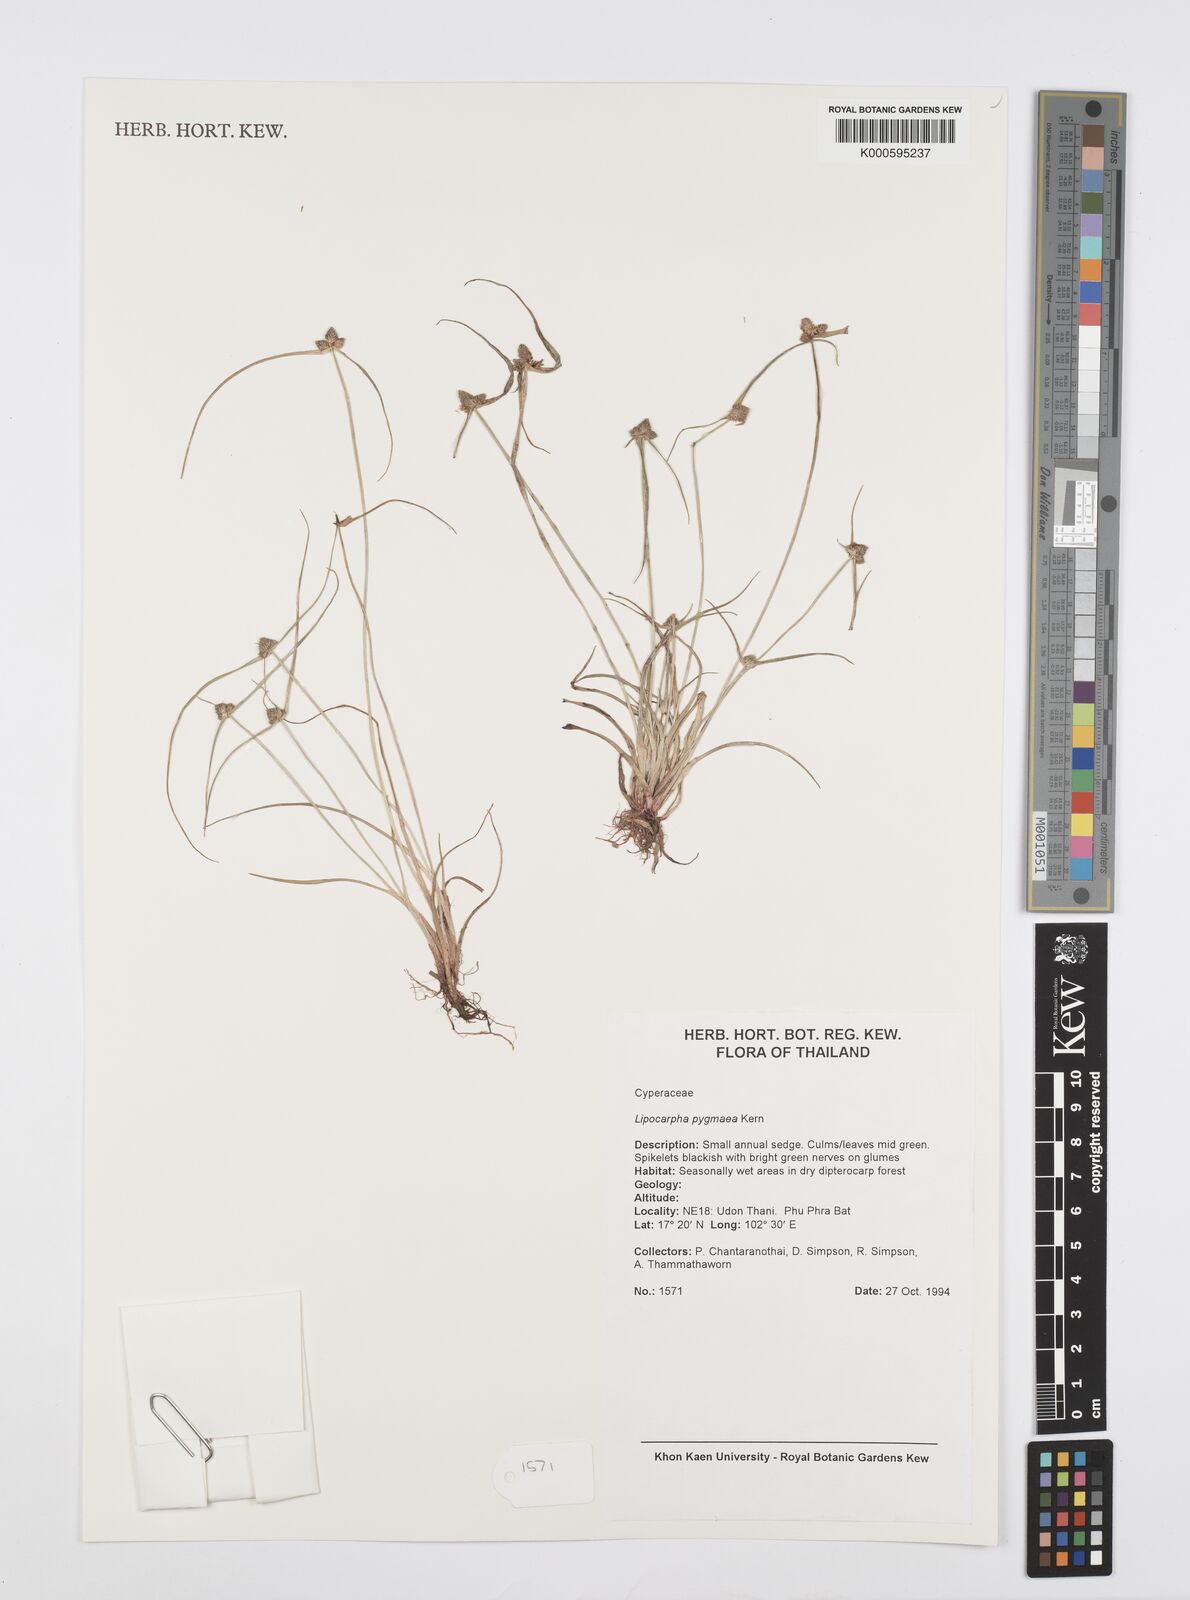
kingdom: Plantae
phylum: Tracheophyta
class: Liliopsida
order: Poales
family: Cyperaceae
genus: Cyperus
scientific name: Cyperus lipopygmaeus
